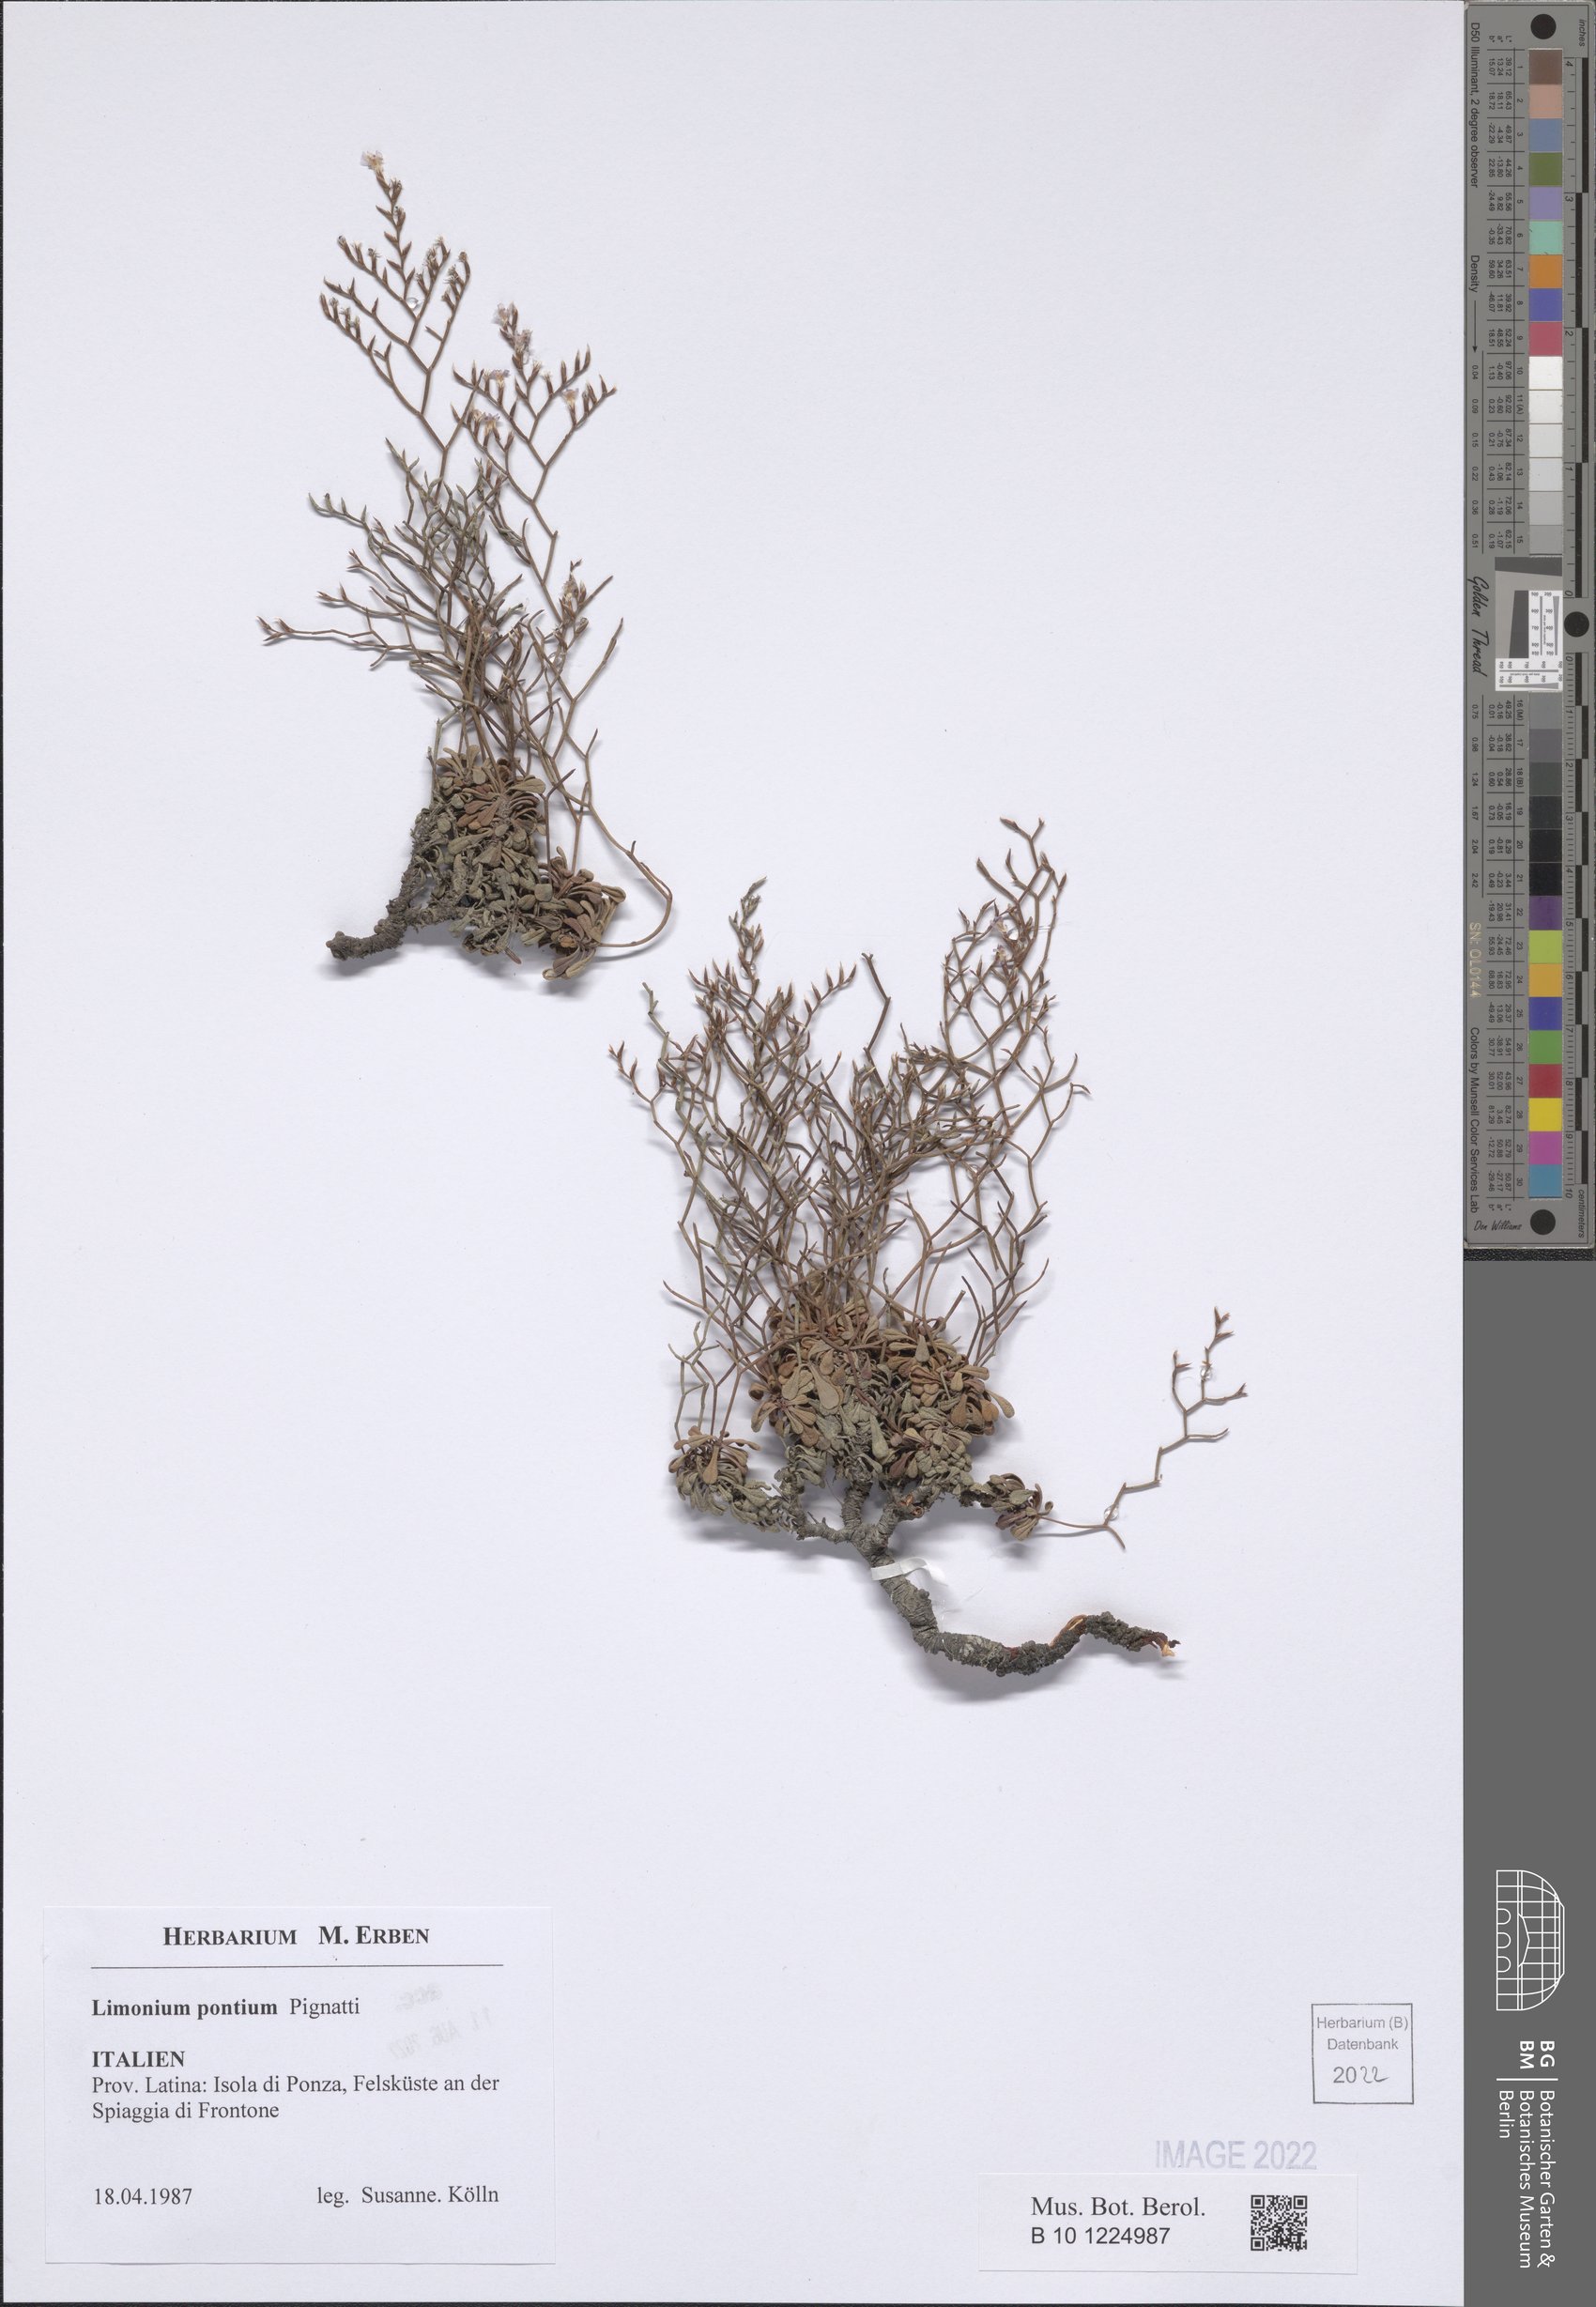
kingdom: Plantae
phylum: Tracheophyta
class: Magnoliopsida
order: Caryophyllales
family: Plumbaginaceae
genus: Limonium
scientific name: Limonium pontium
